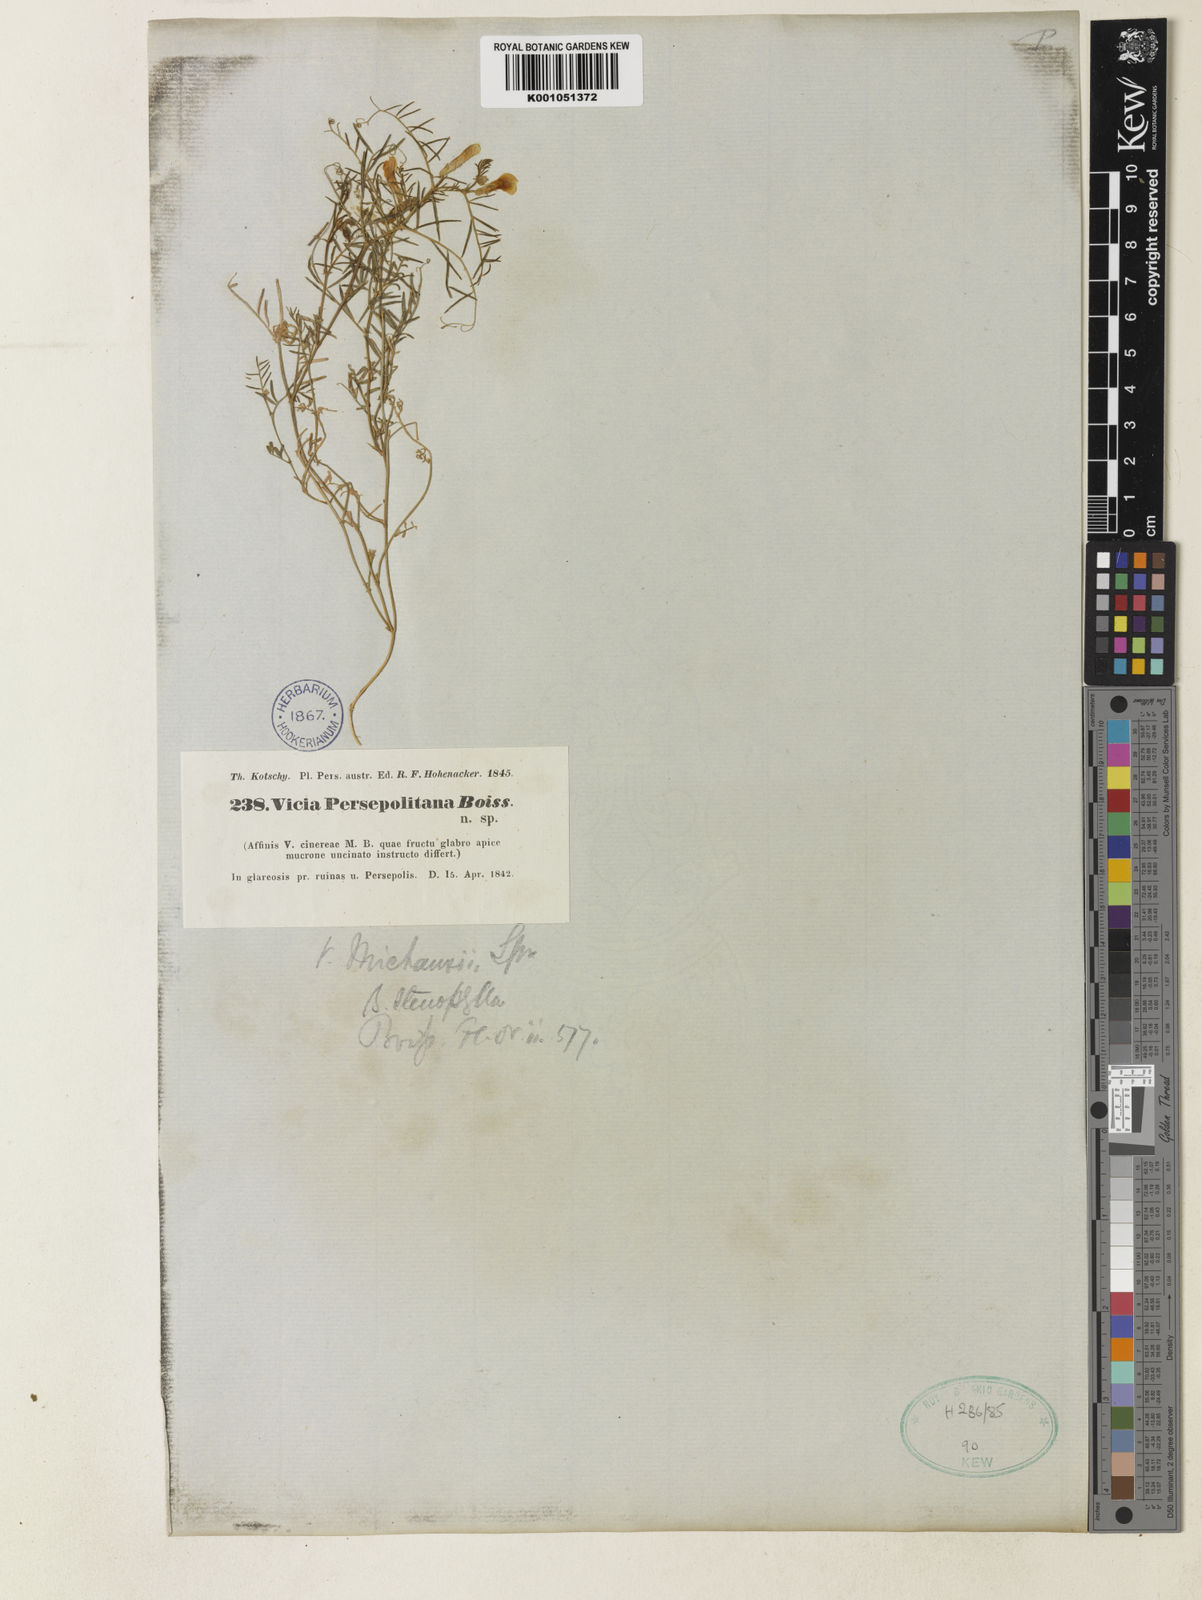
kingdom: Plantae
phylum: Tracheophyta
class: Magnoliopsida
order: Fabales
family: Fabaceae
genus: Vicia
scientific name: Vicia michauxii
